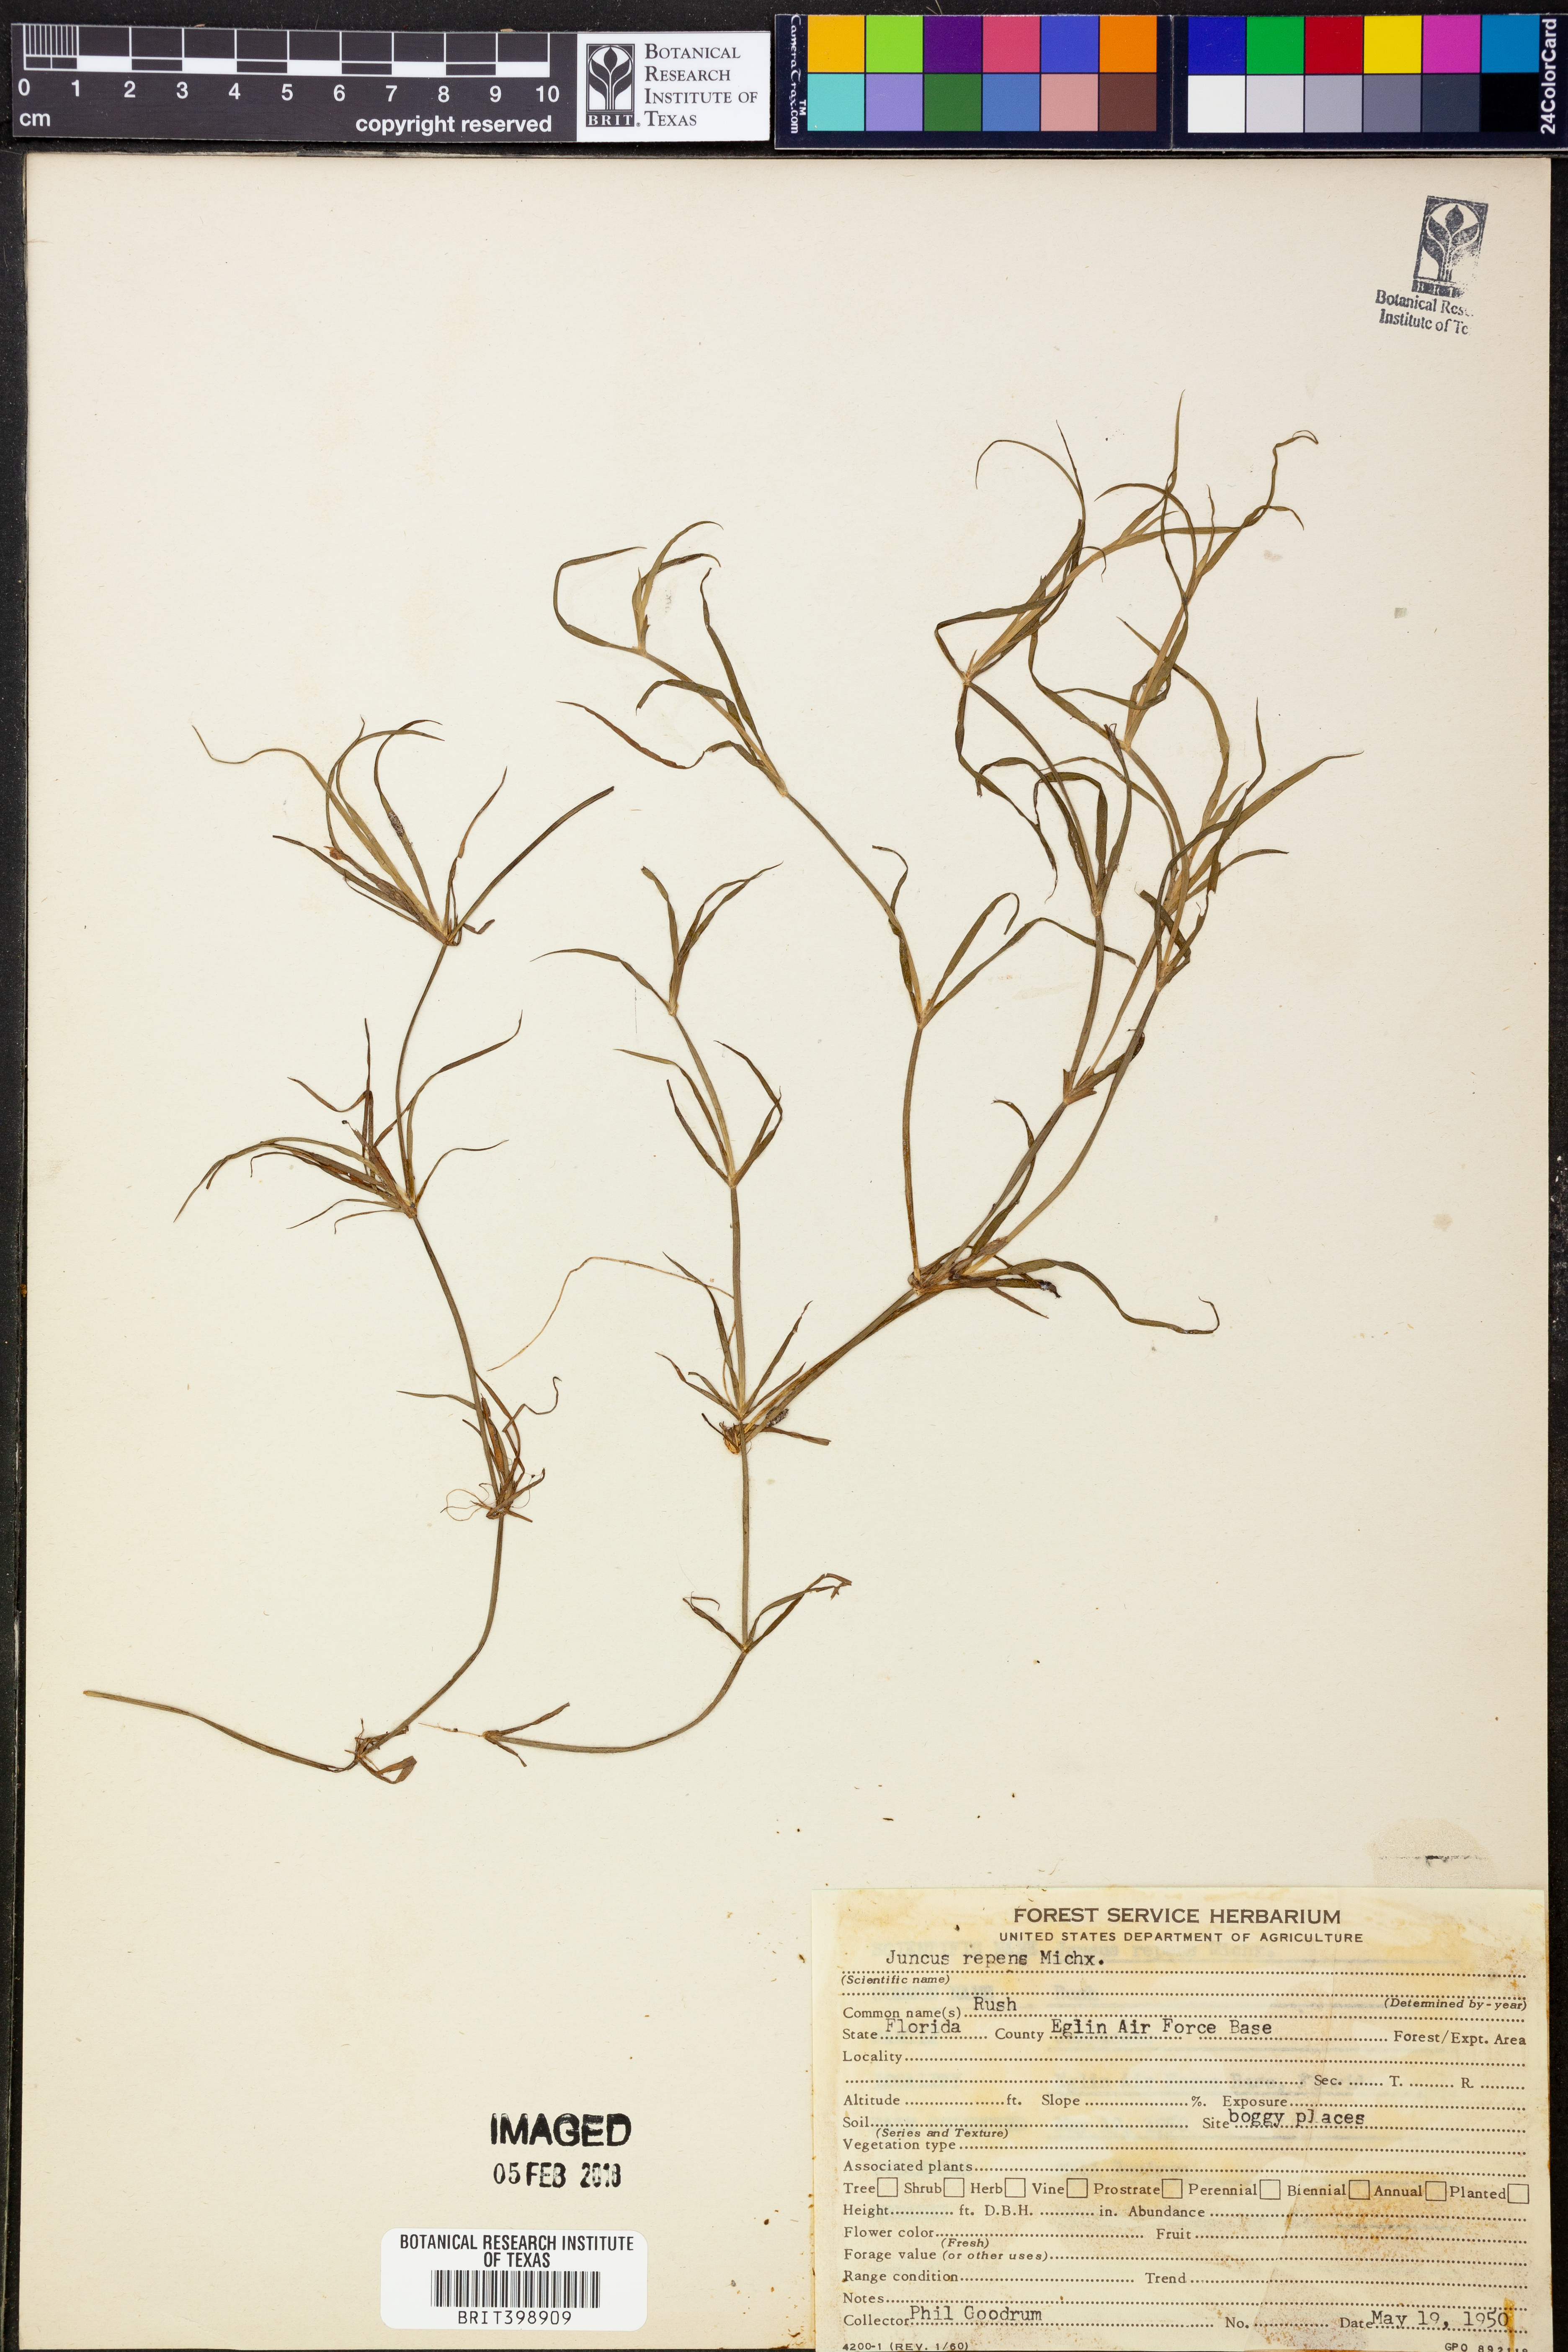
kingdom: Plantae
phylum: Tracheophyta
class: Liliopsida
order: Poales
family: Juncaceae
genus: Juncus
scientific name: Juncus repens
